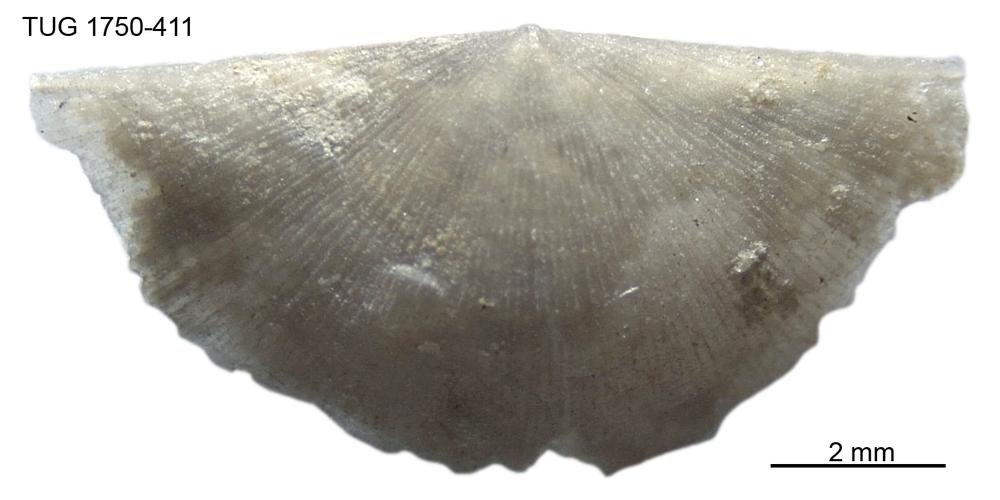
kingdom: Animalia
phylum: Brachiopoda
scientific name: Brachiopoda
